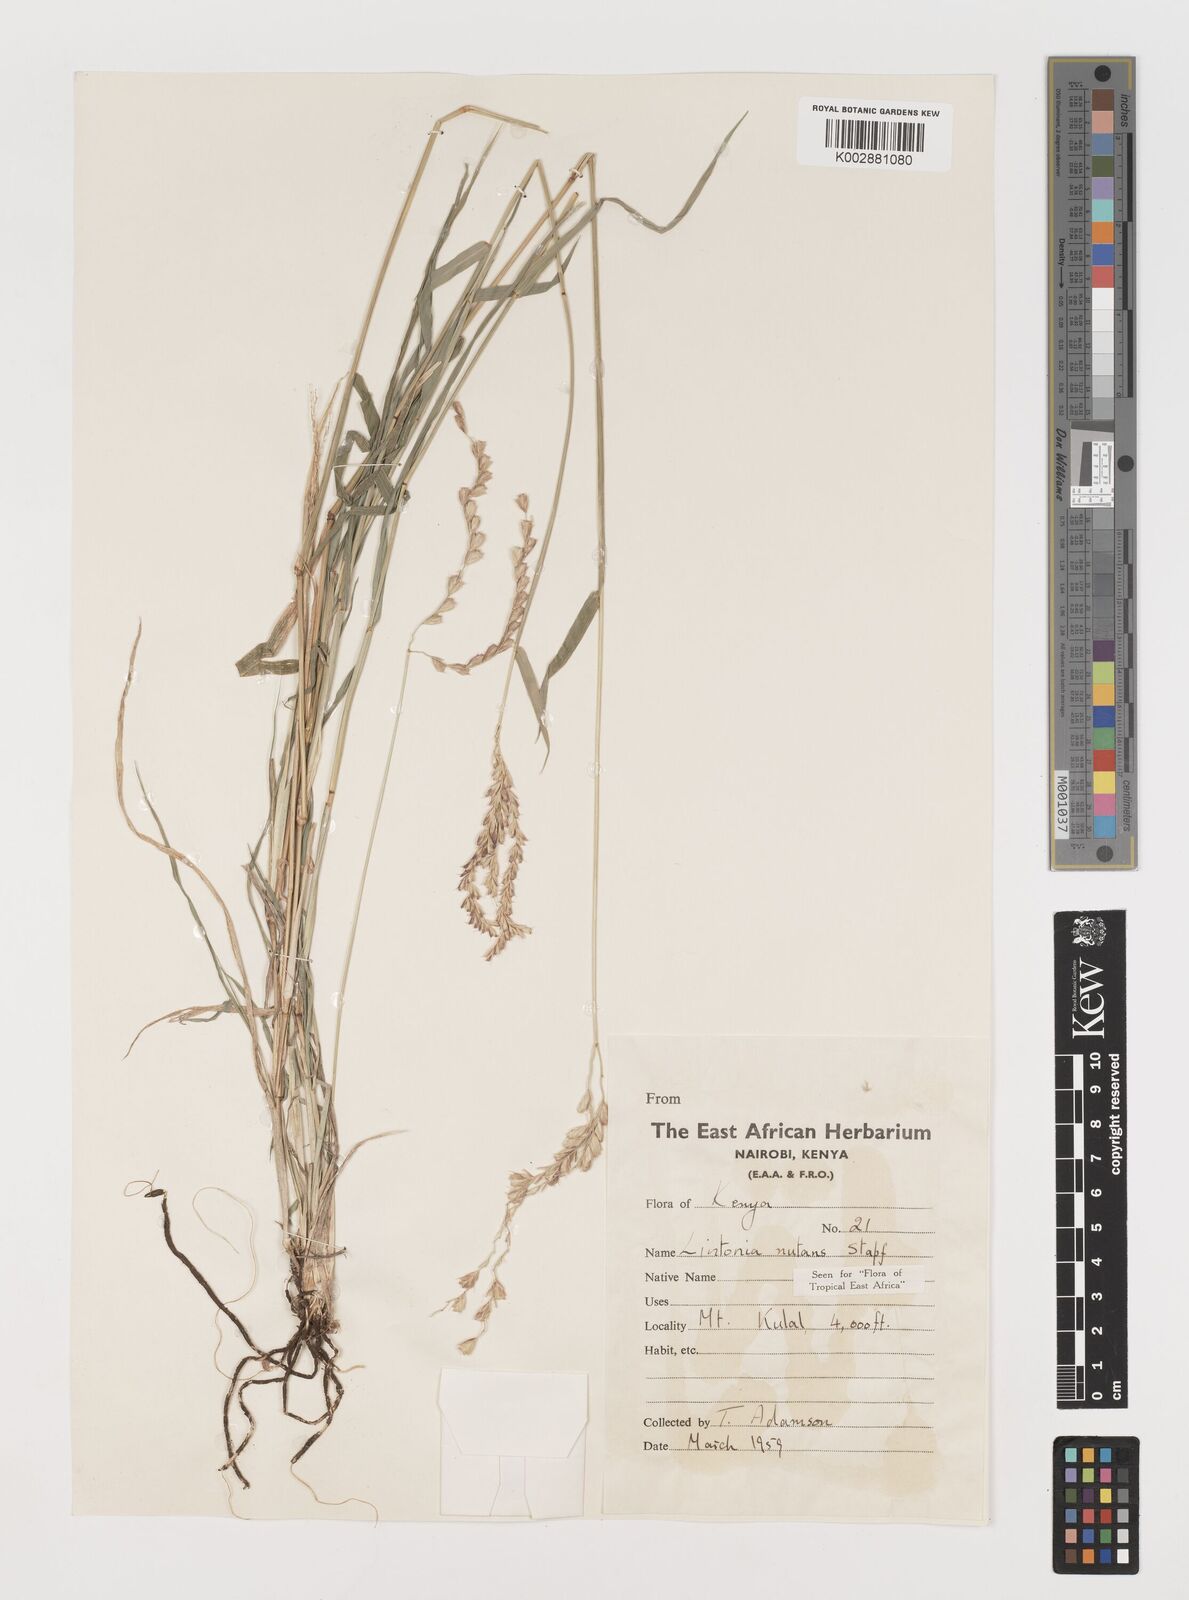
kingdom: Plantae
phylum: Tracheophyta
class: Liliopsida
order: Poales
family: Poaceae
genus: Chloris
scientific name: Chloris nutans
